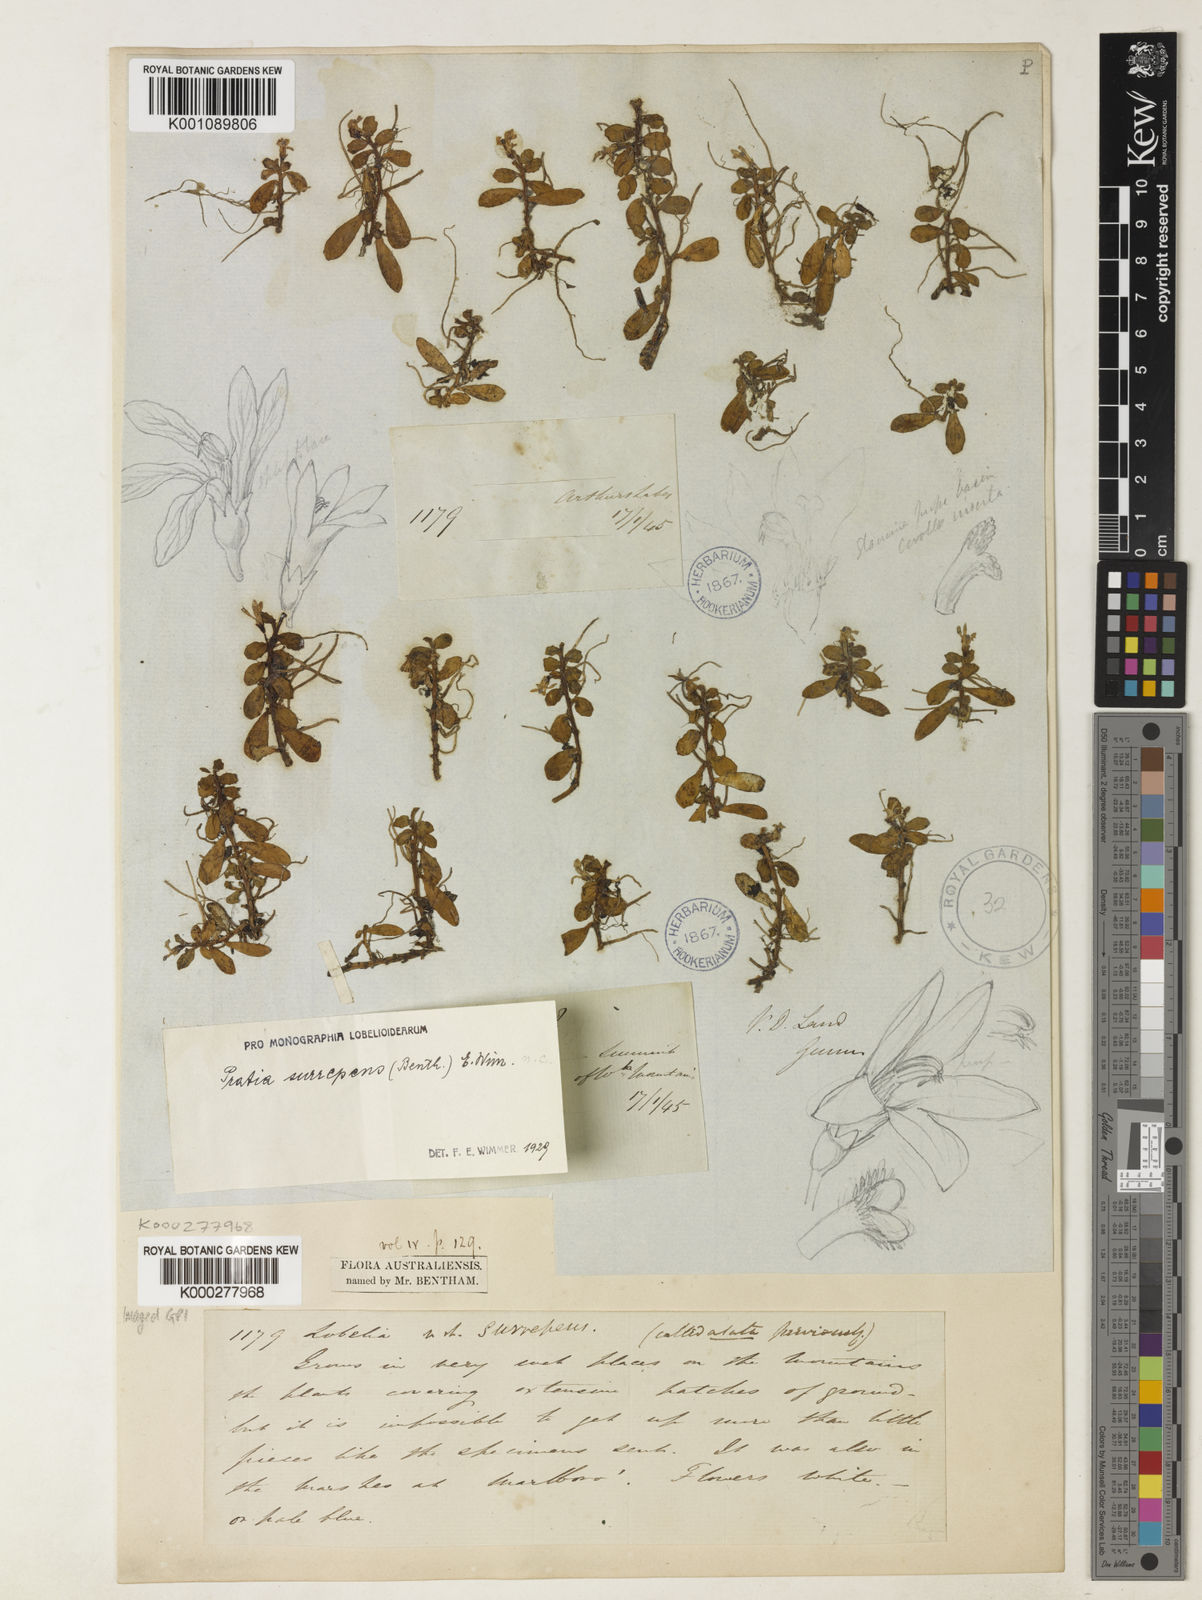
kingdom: Plantae
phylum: Tracheophyta
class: Magnoliopsida
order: Asterales
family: Campanulaceae
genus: Lobelia
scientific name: Lobelia surrepens
